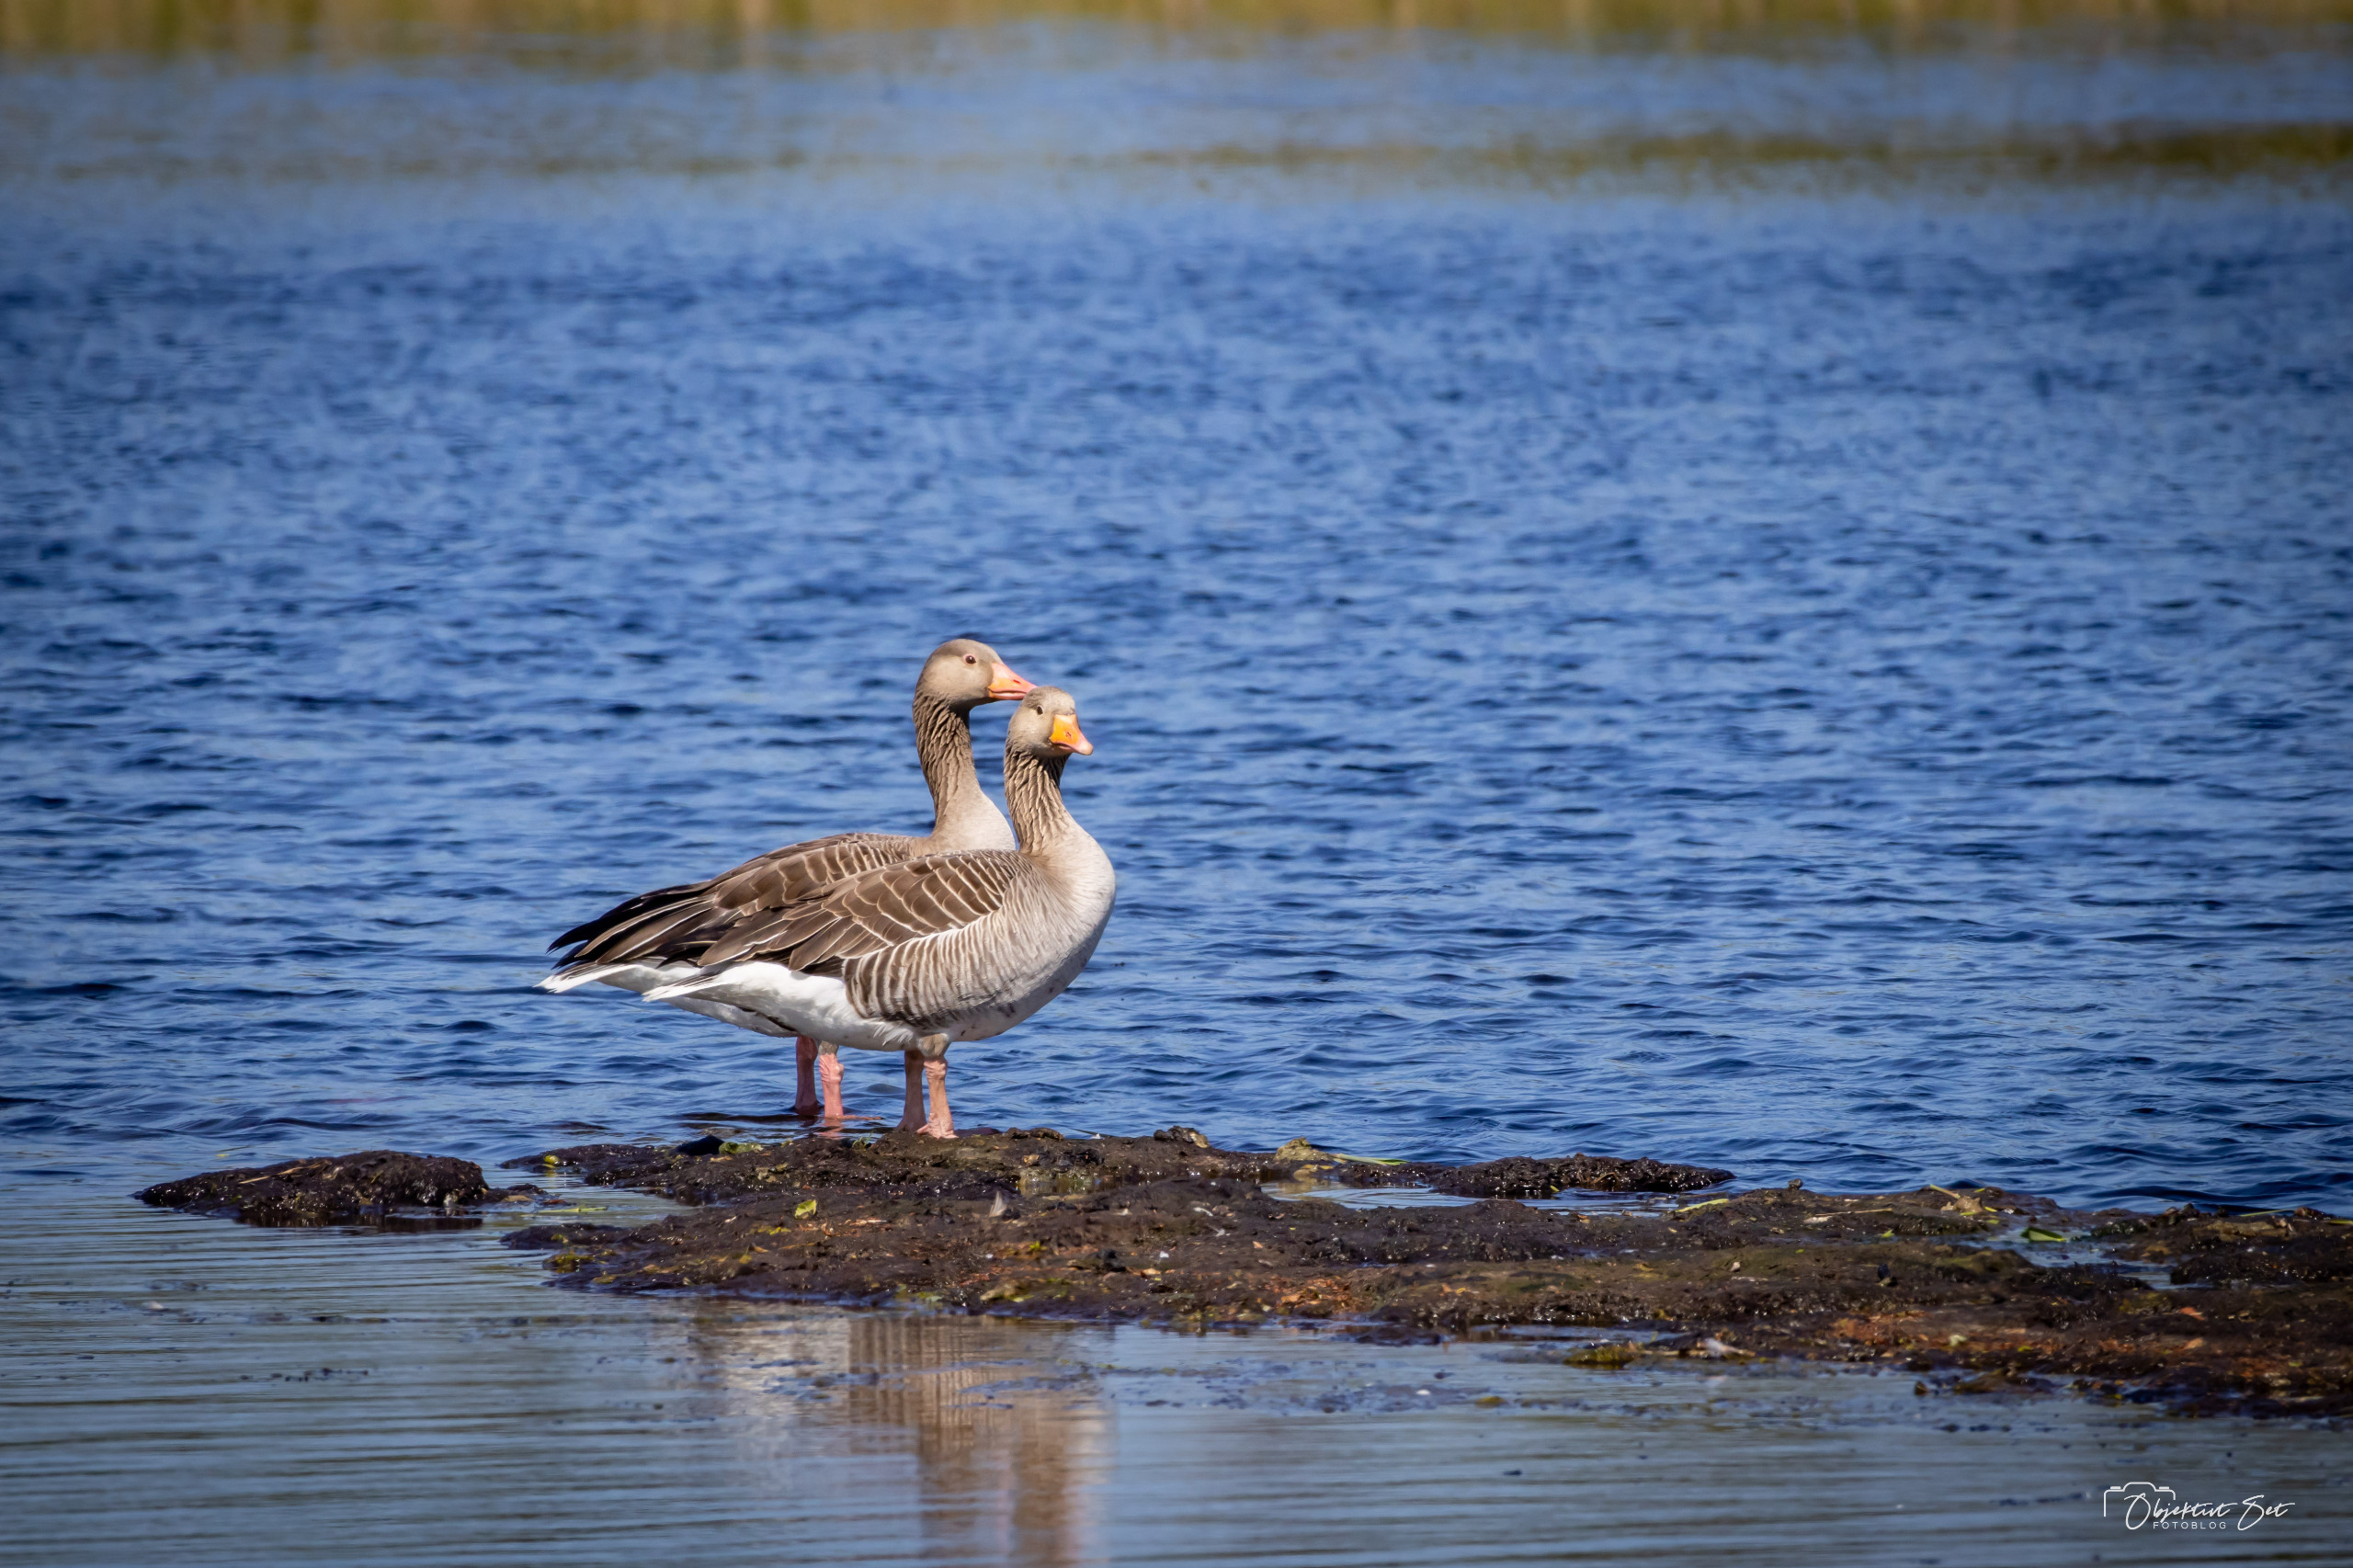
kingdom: Animalia
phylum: Chordata
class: Aves
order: Anseriformes
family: Anatidae
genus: Anser
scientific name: Anser anser
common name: Grågås
